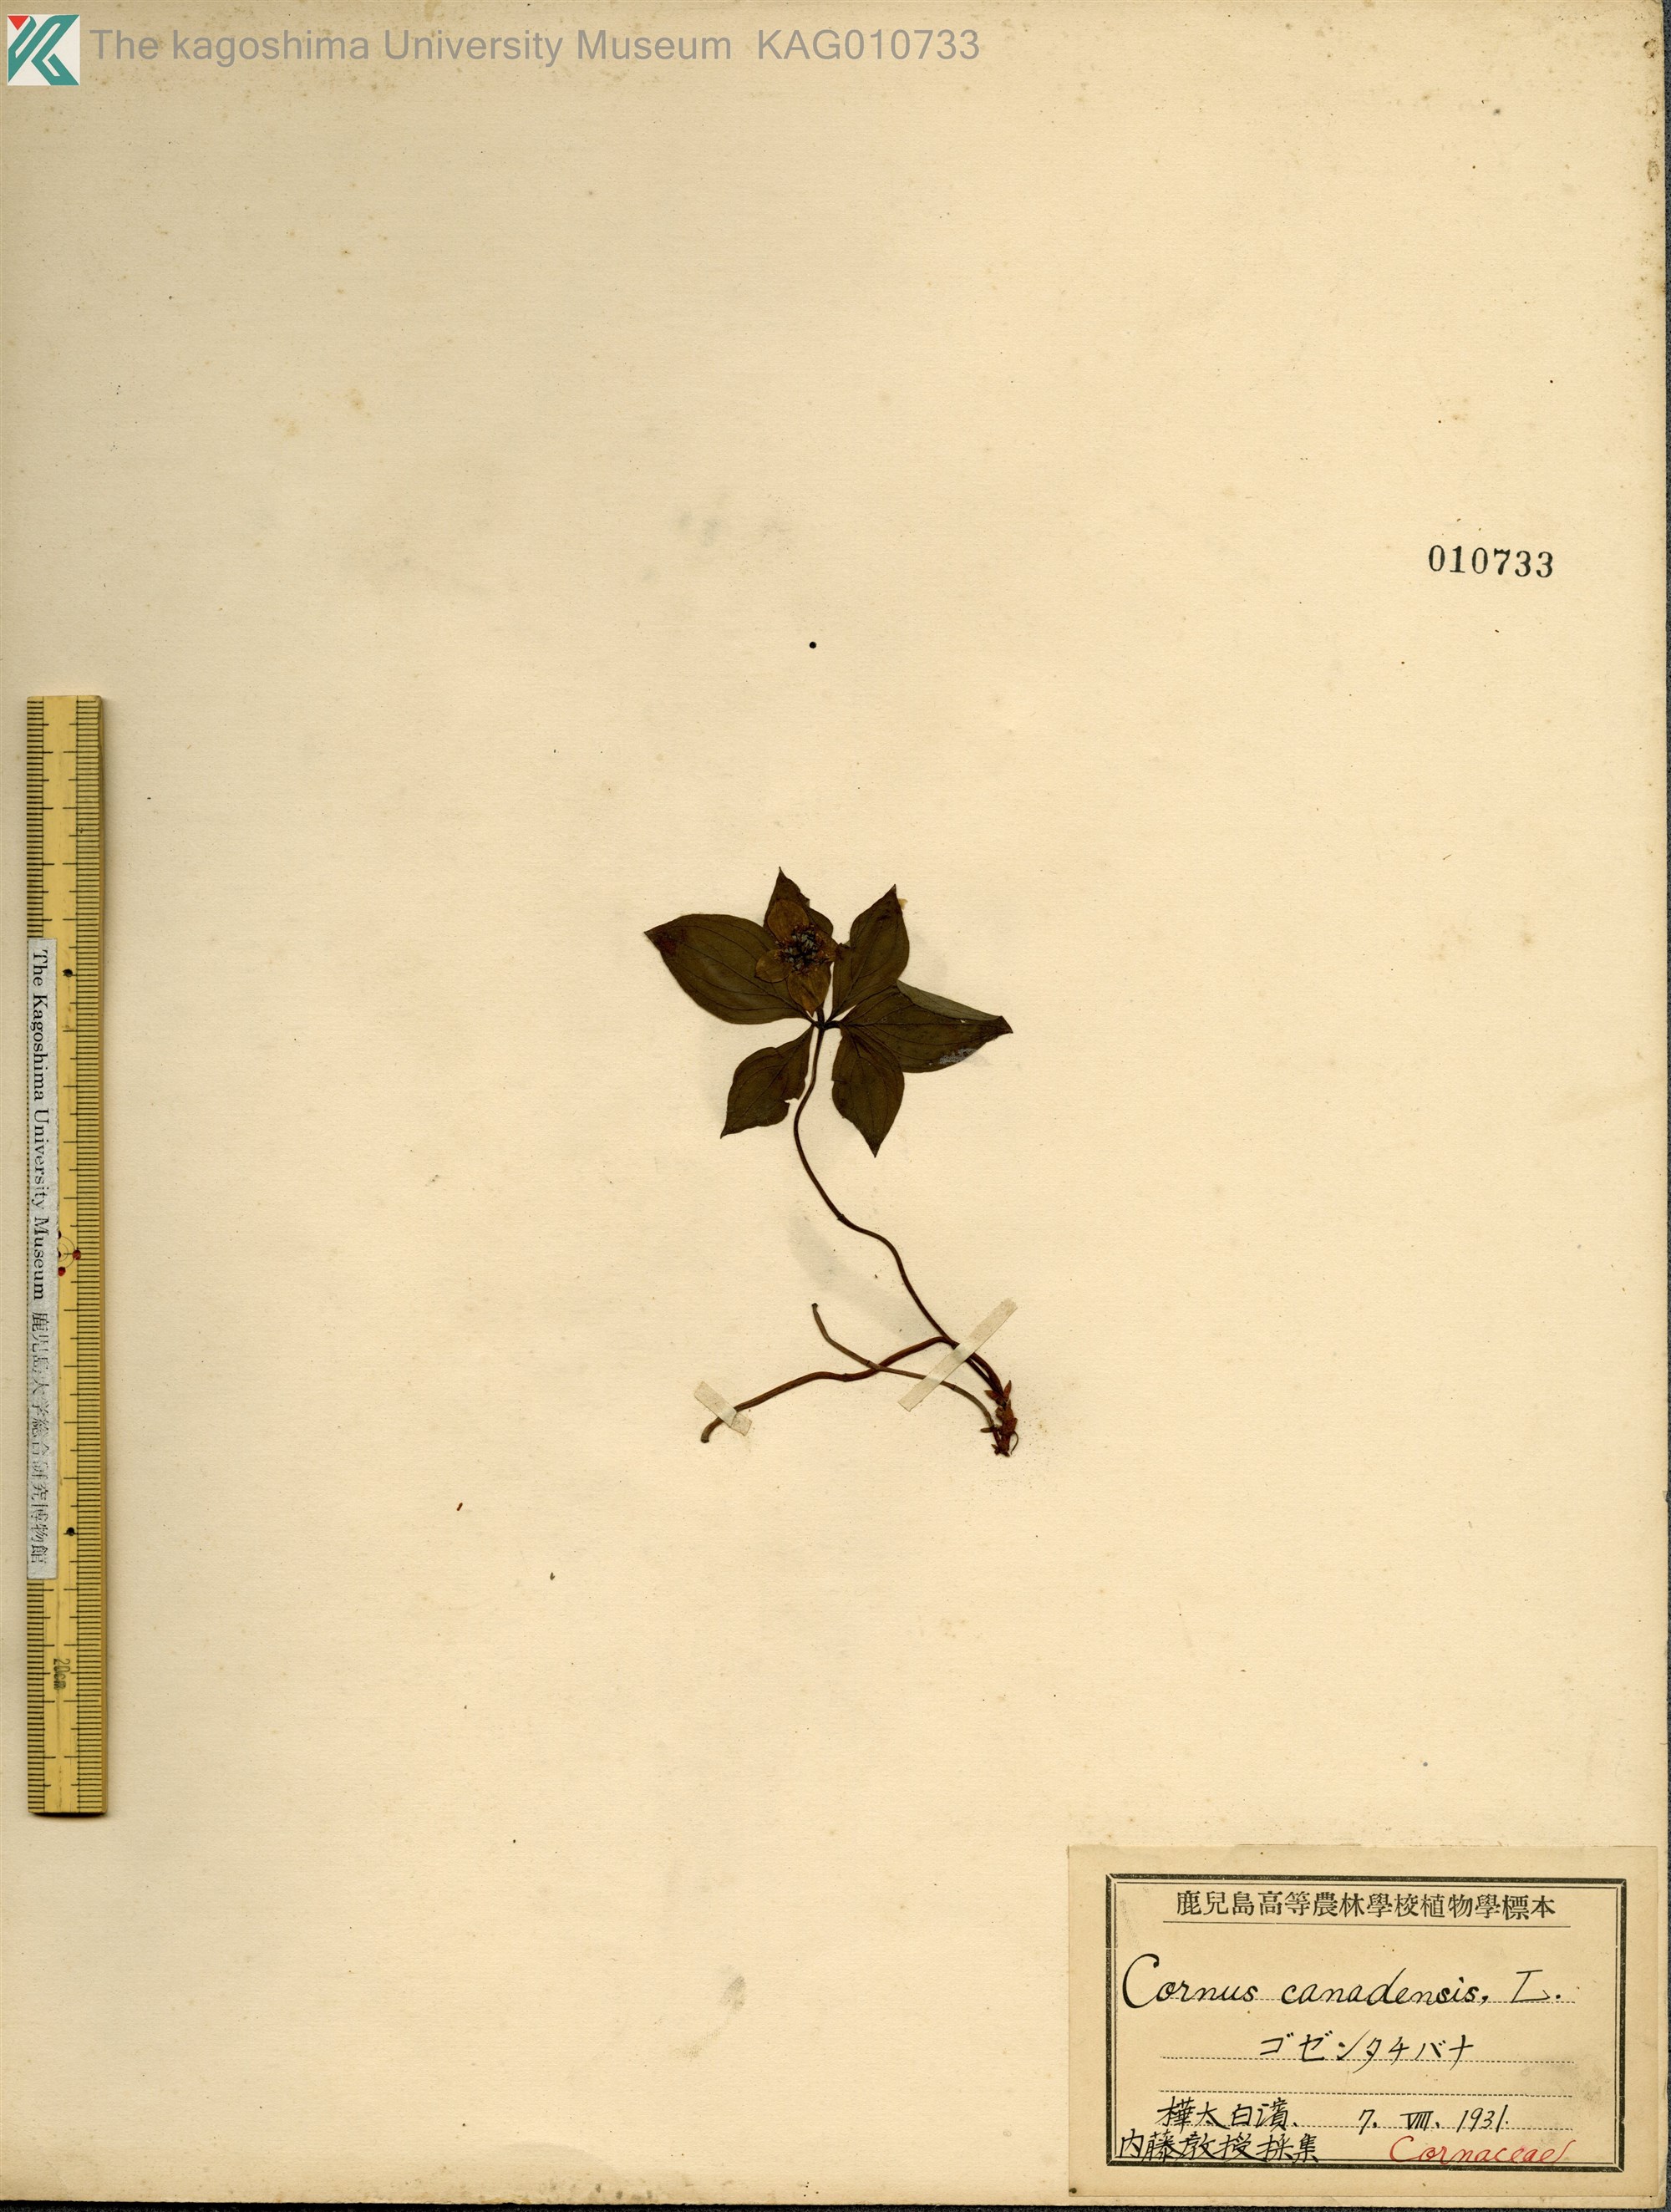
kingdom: Plantae
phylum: Tracheophyta
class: Magnoliopsida
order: Cornales
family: Cornaceae
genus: Cornus
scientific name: Cornus canadensis
